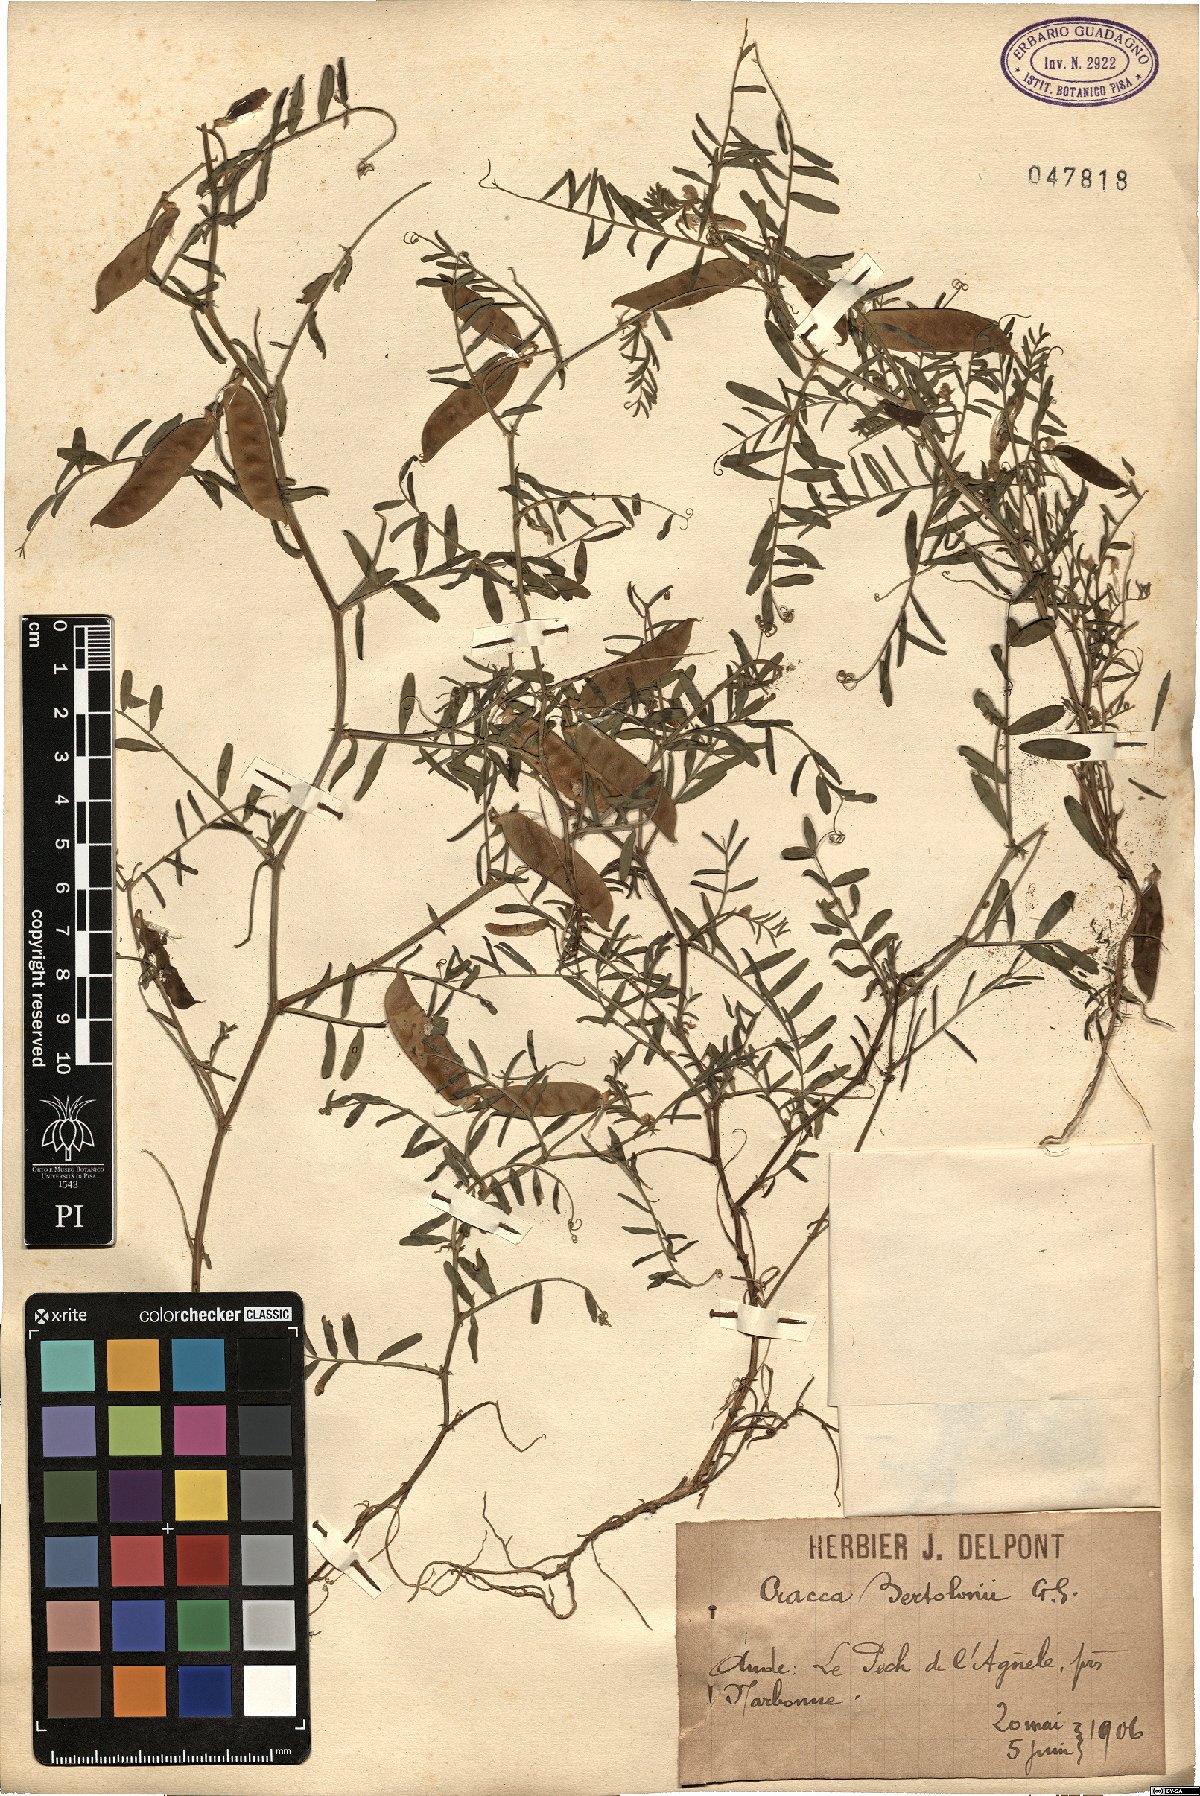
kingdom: Plantae
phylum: Tracheophyta
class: Magnoliopsida
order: Fabales
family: Fabaceae
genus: Vicia
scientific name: Vicia villosa
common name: Fodder vetch
